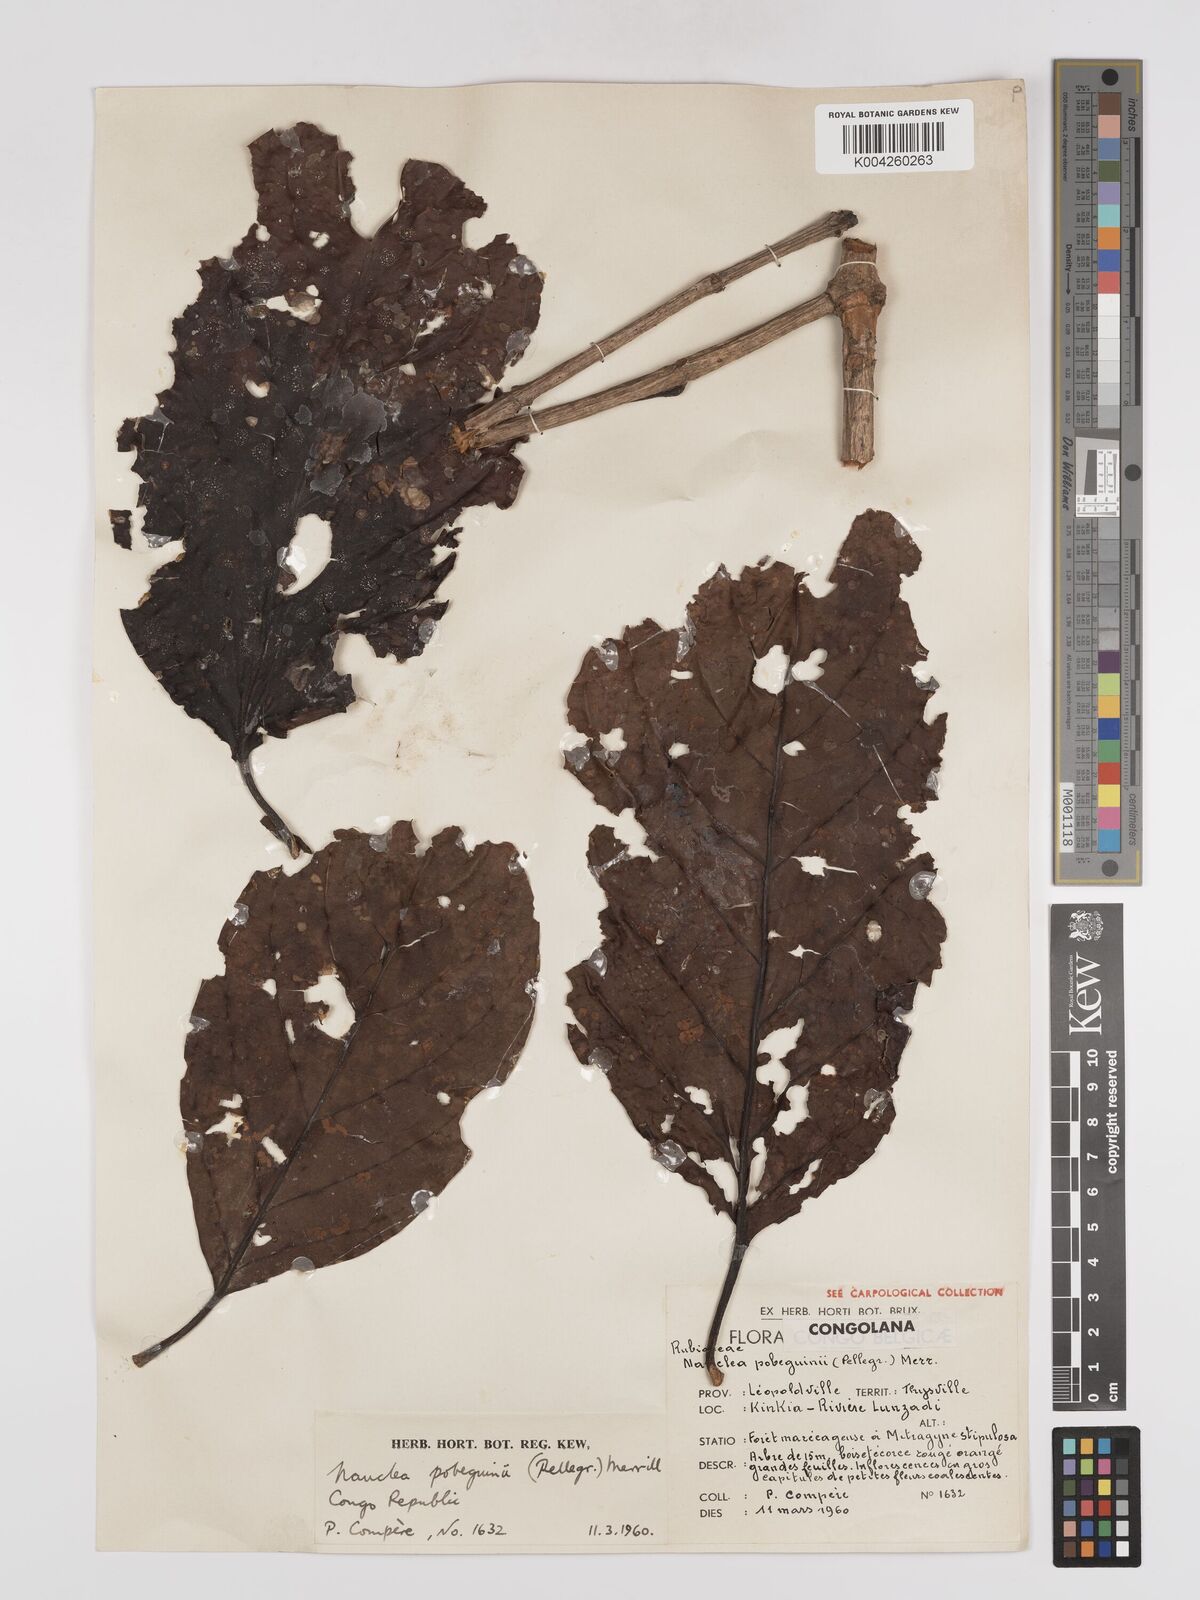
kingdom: Plantae
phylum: Tracheophyta
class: Magnoliopsida
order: Gentianales
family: Rubiaceae
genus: Nauclea
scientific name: Nauclea pobeguinii
